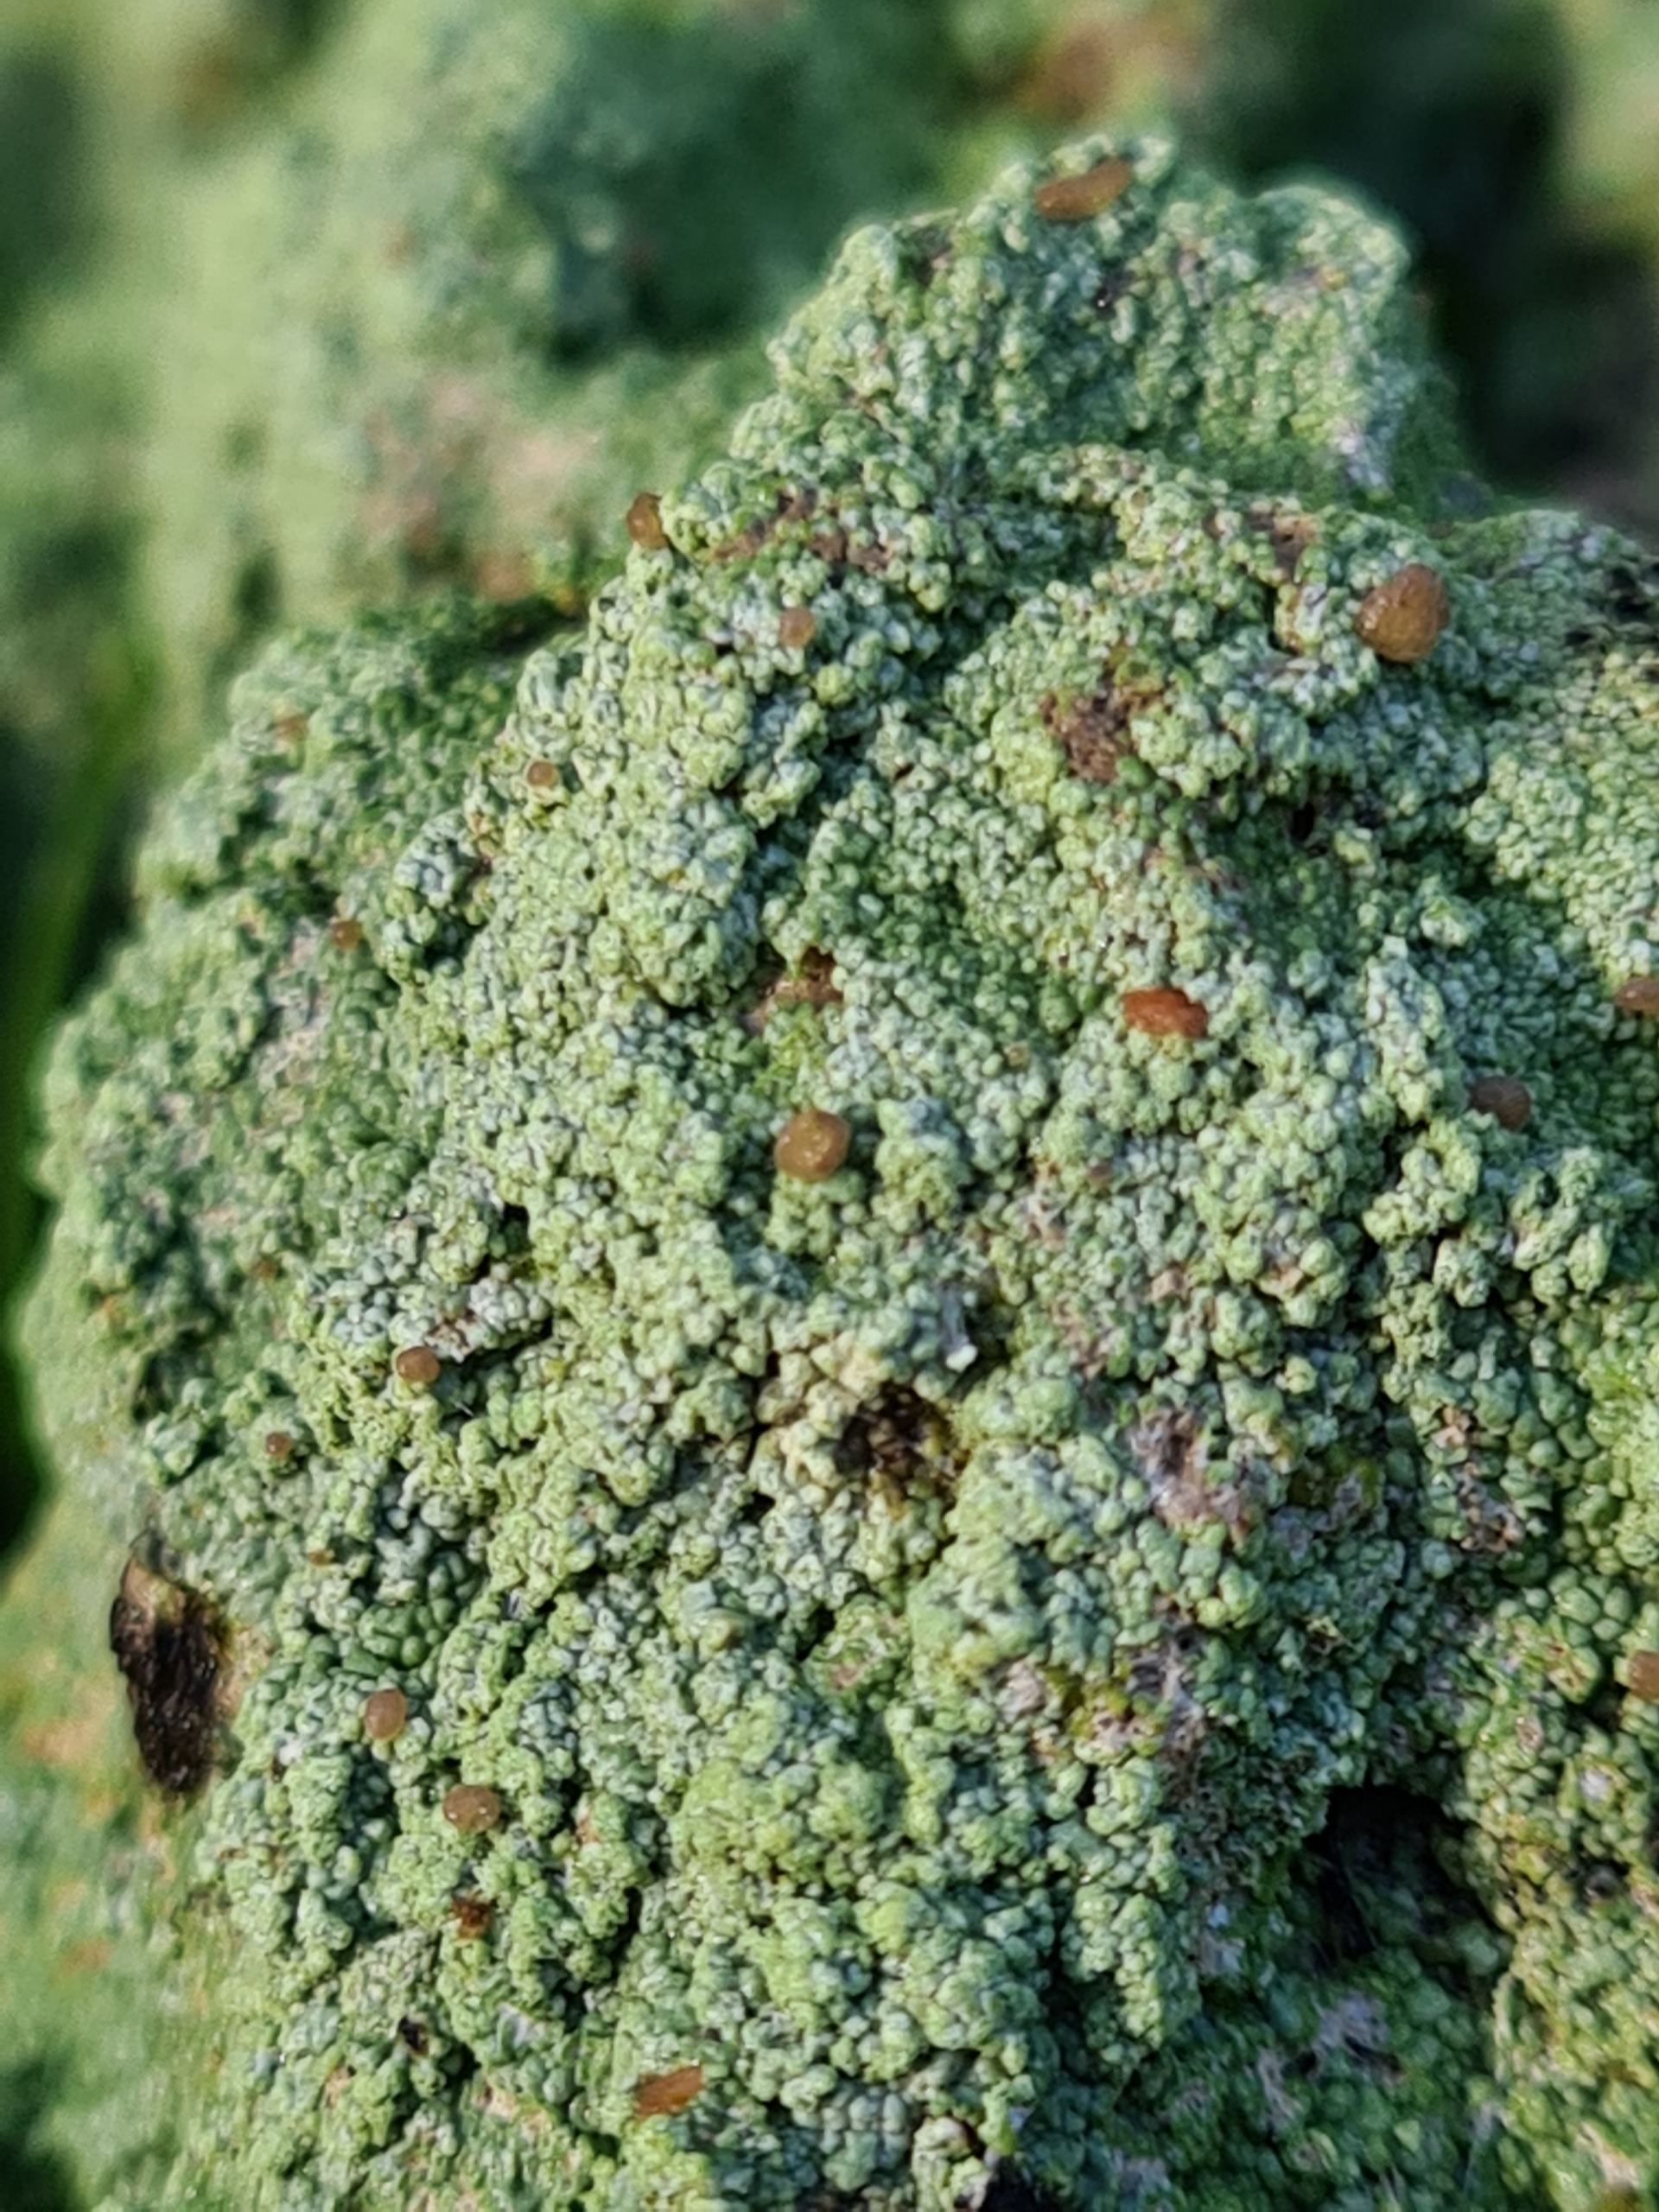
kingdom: Fungi
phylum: Ascomycota
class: Lecanoromycetes
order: Baeomycetales
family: Baeomycetaceae
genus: Baeomyces
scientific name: Baeomyces rufus
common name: Rødbrun svampelav
